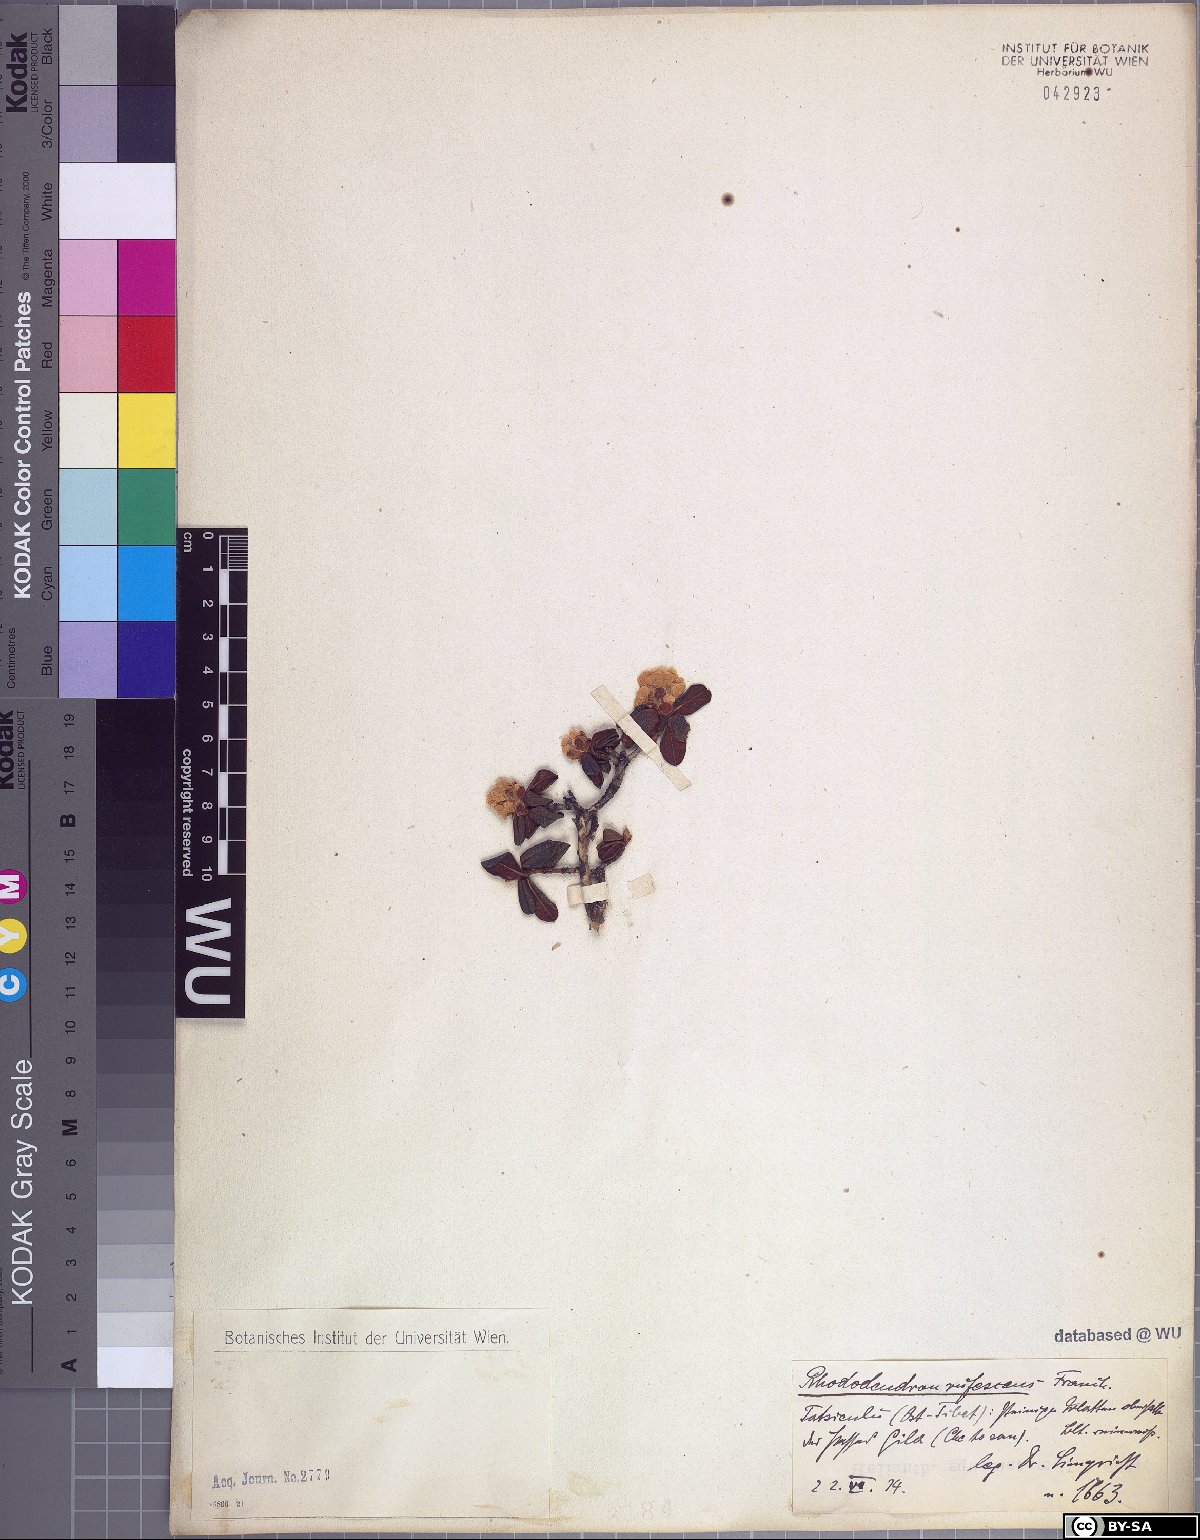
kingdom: Plantae
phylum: Tracheophyta
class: Magnoliopsida
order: Ericales
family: Ericaceae
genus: Rhododendron
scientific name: Rhododendron rufescens
